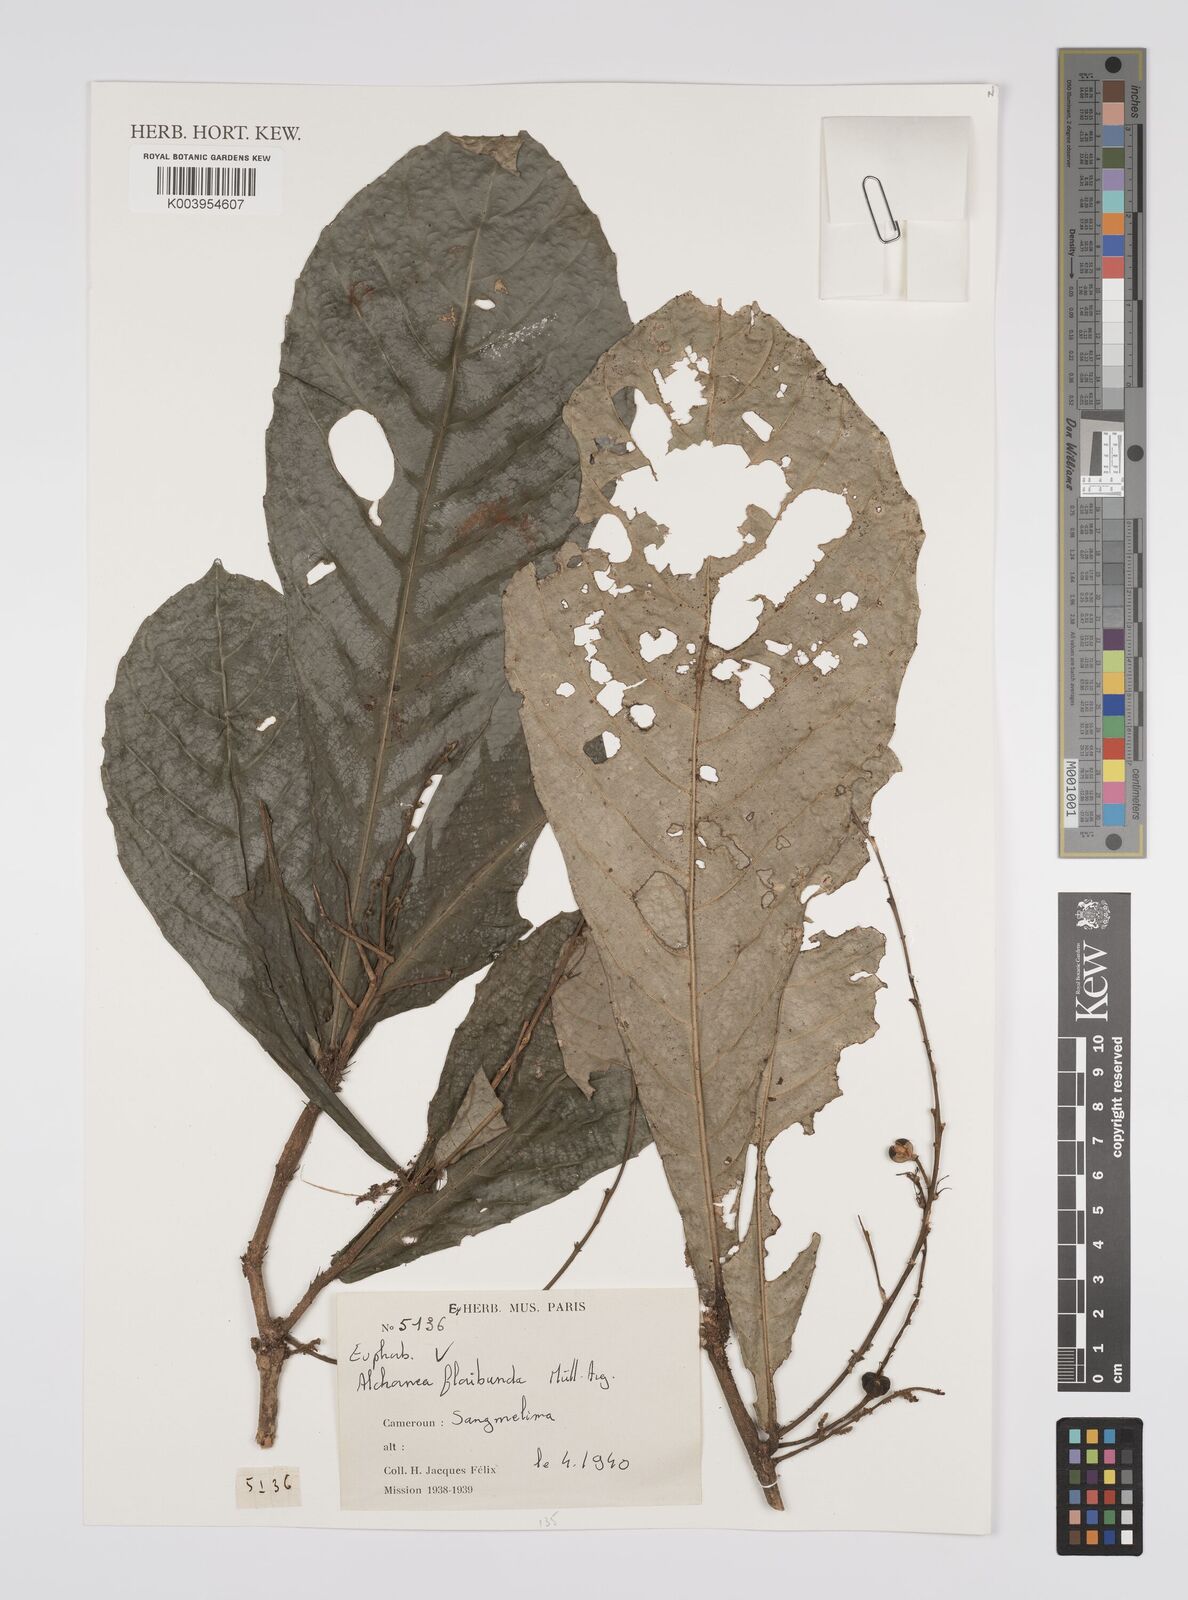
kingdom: Plantae
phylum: Tracheophyta
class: Magnoliopsida
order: Malpighiales
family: Euphorbiaceae
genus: Alchornea
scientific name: Alchornea floribunda
